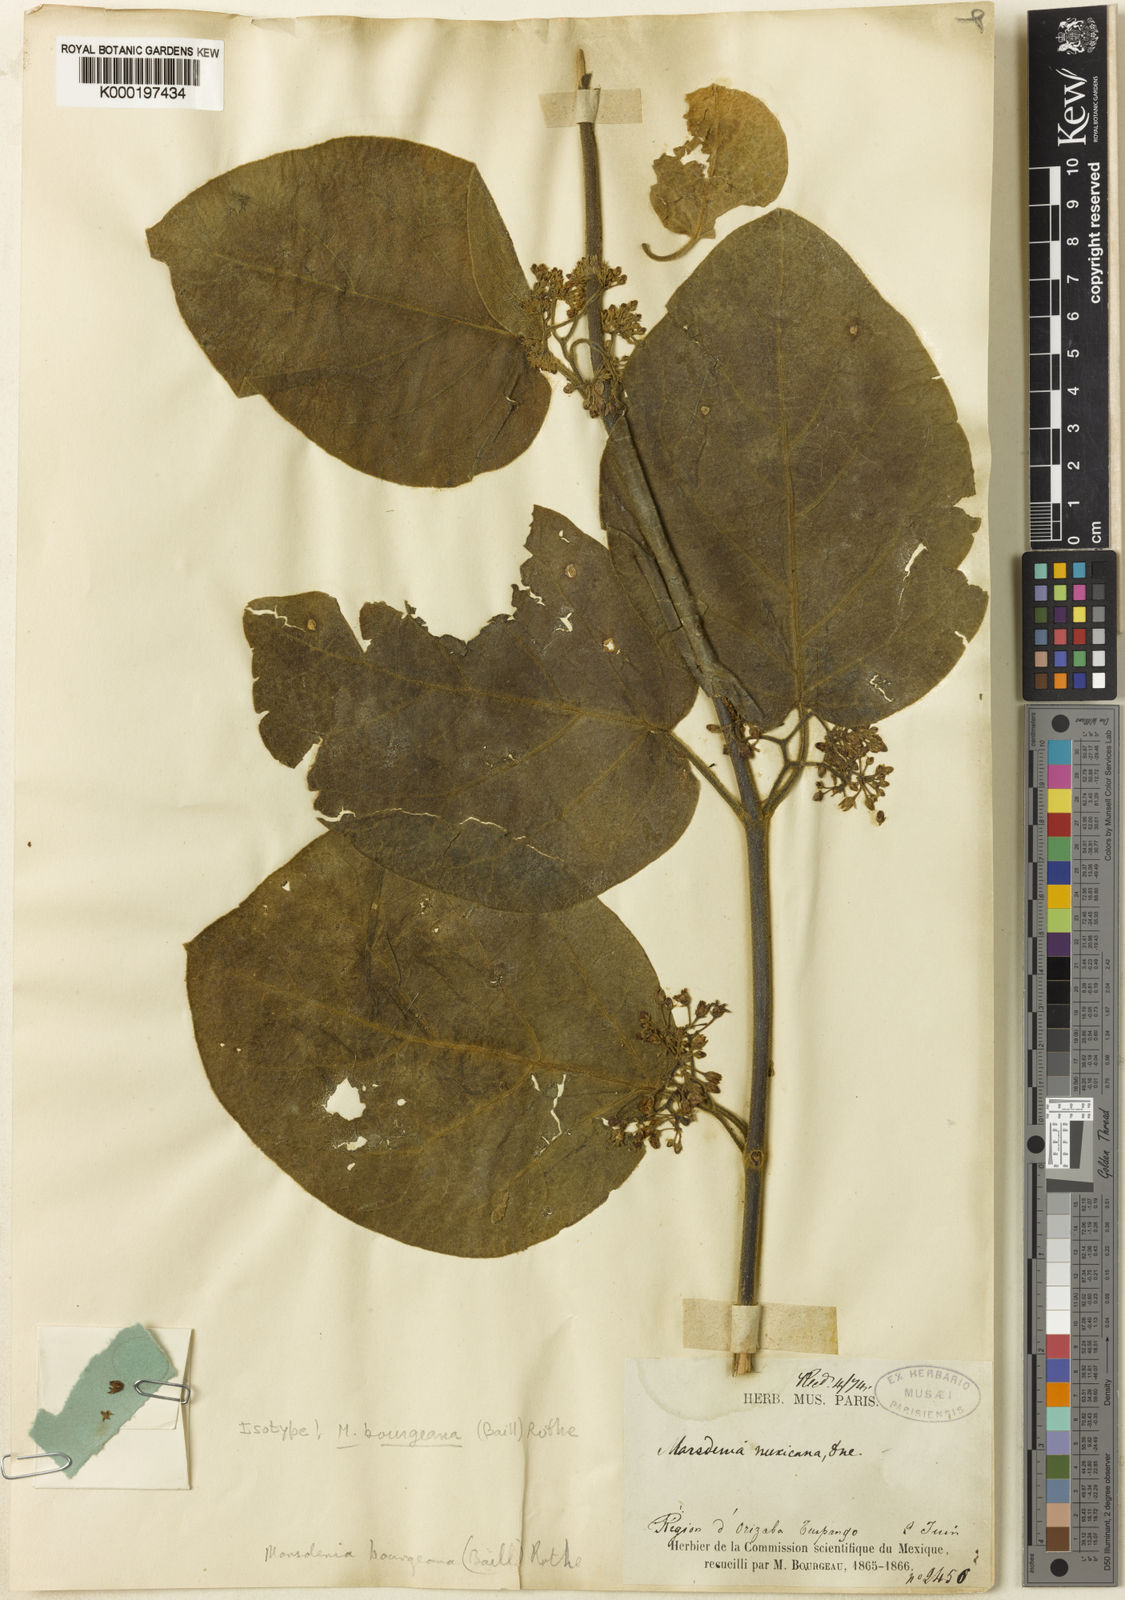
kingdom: Plantae
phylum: Tracheophyta
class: Magnoliopsida
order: Gentianales
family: Apocynaceae
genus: Marsdenia
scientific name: Marsdenia
